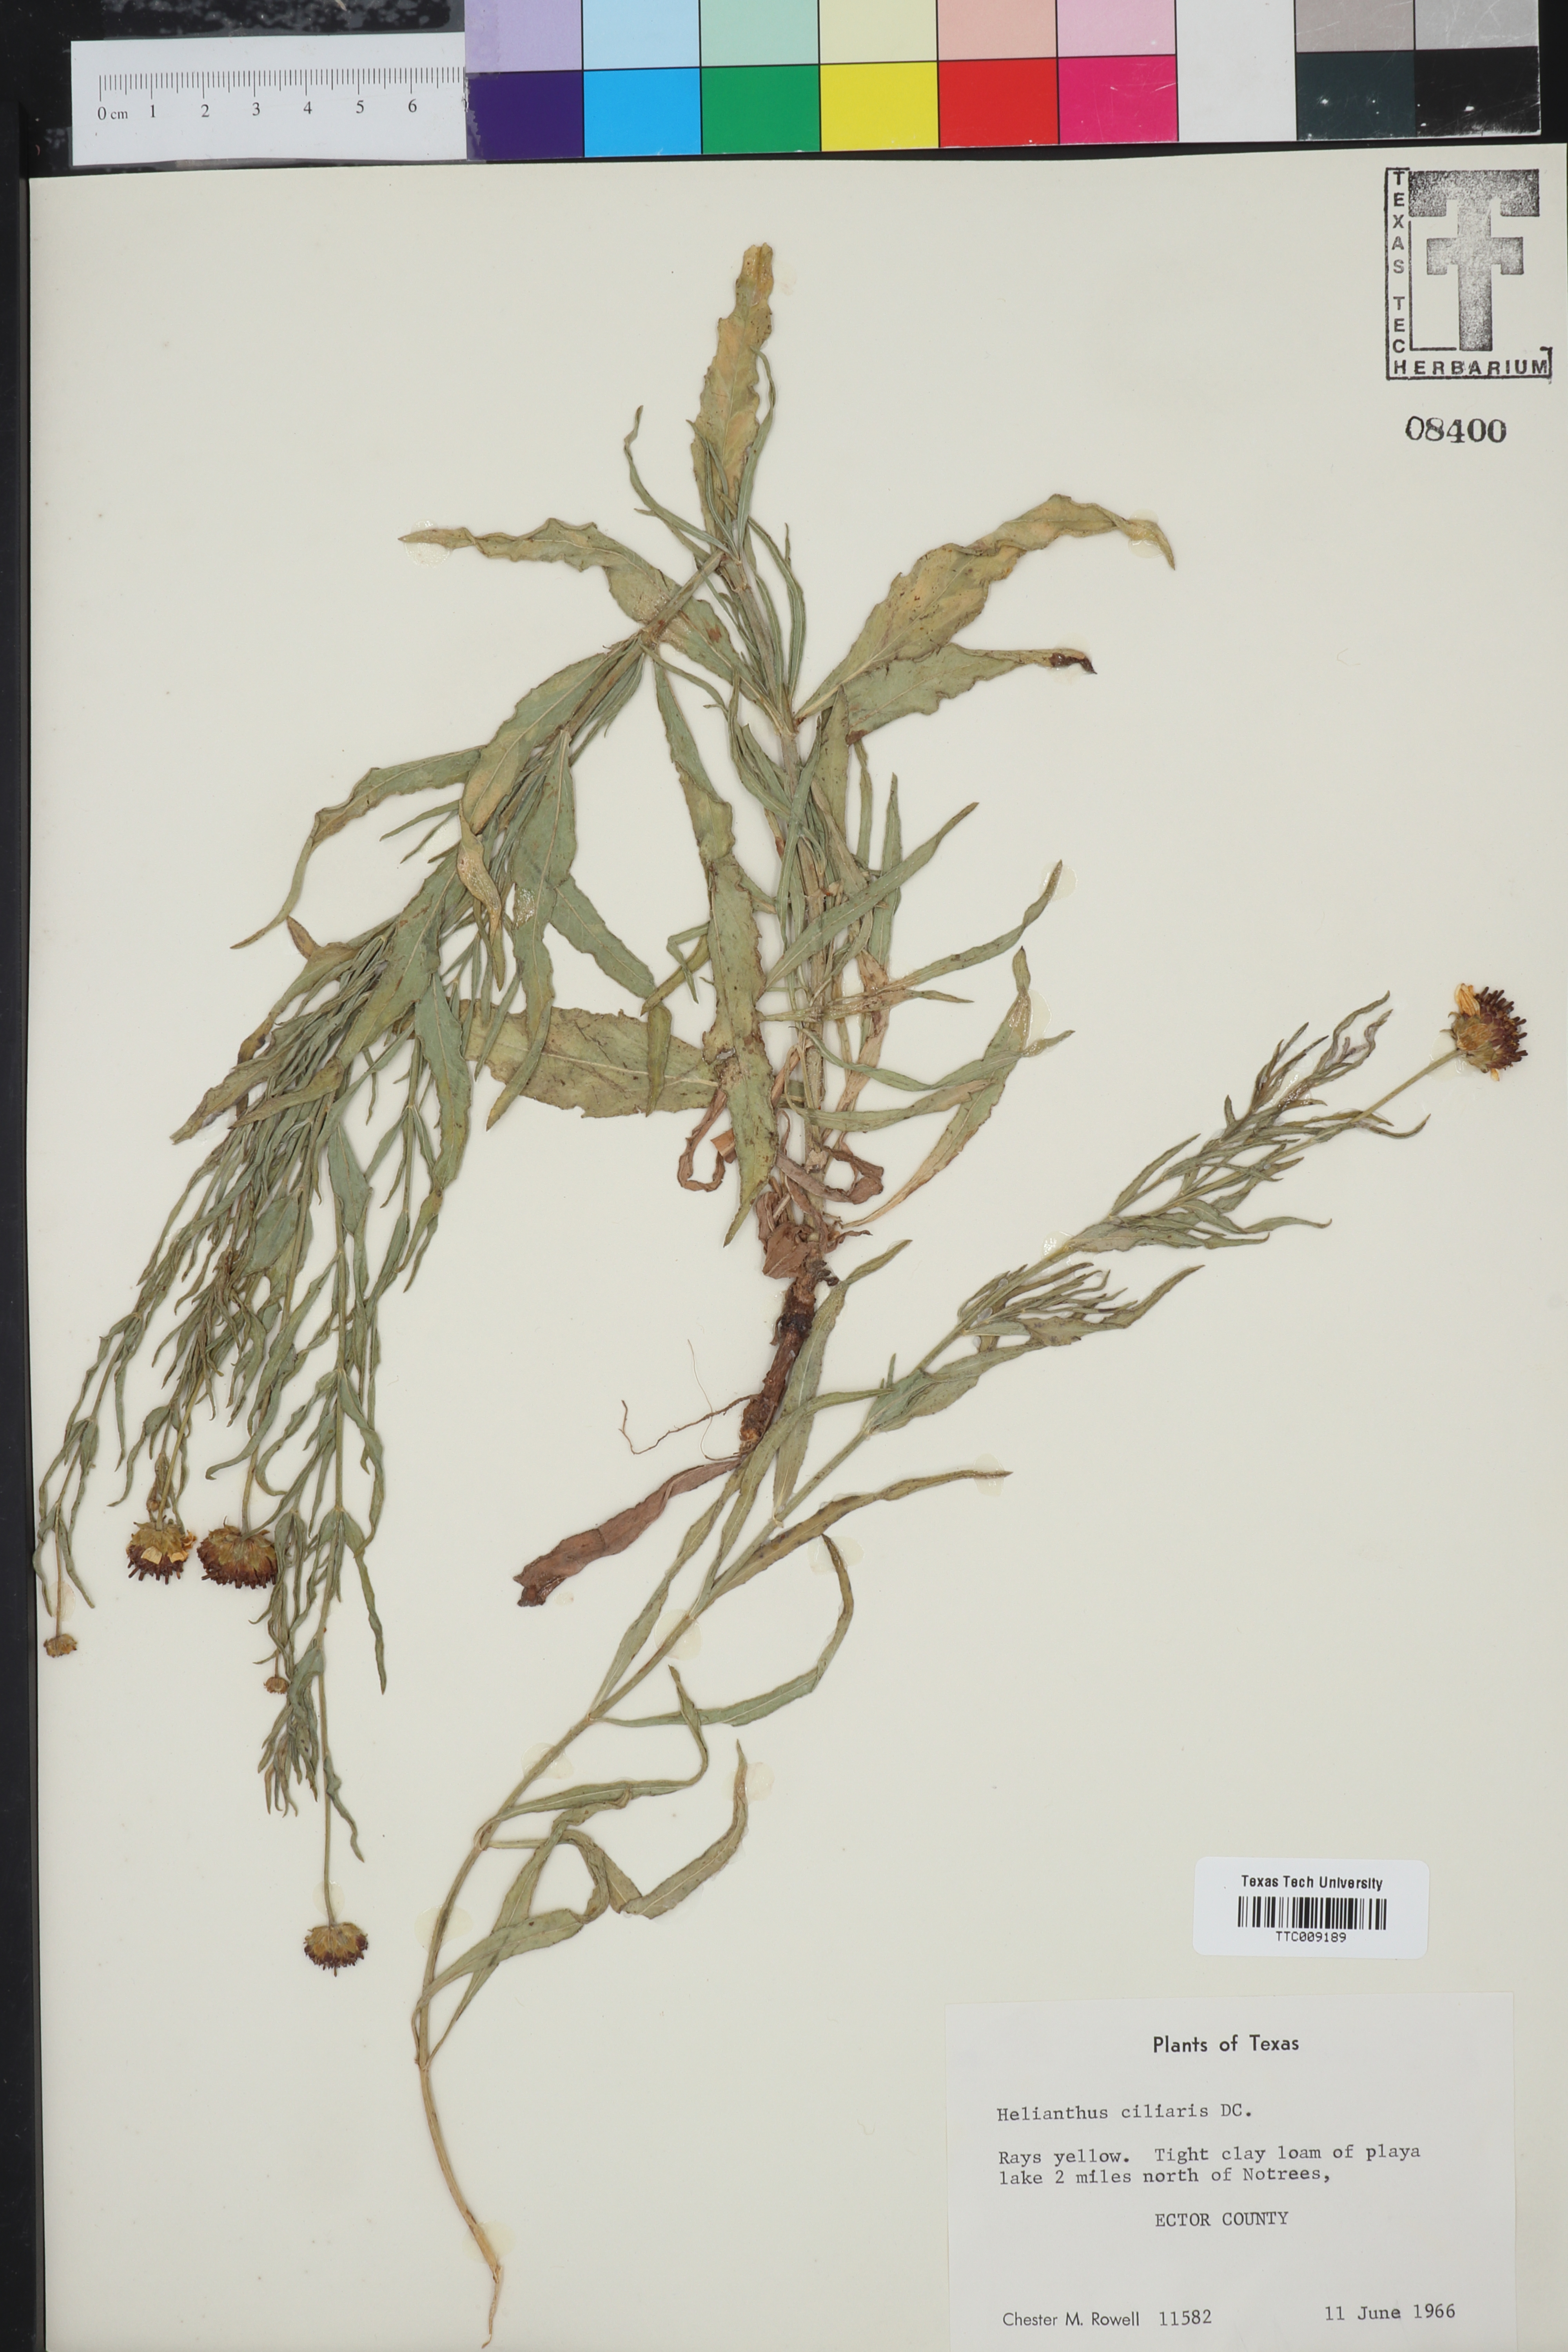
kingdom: Plantae
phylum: Tracheophyta
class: Magnoliopsida
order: Asterales
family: Asteraceae
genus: Helianthus
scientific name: Helianthus ciliaris
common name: Texas blueweed
